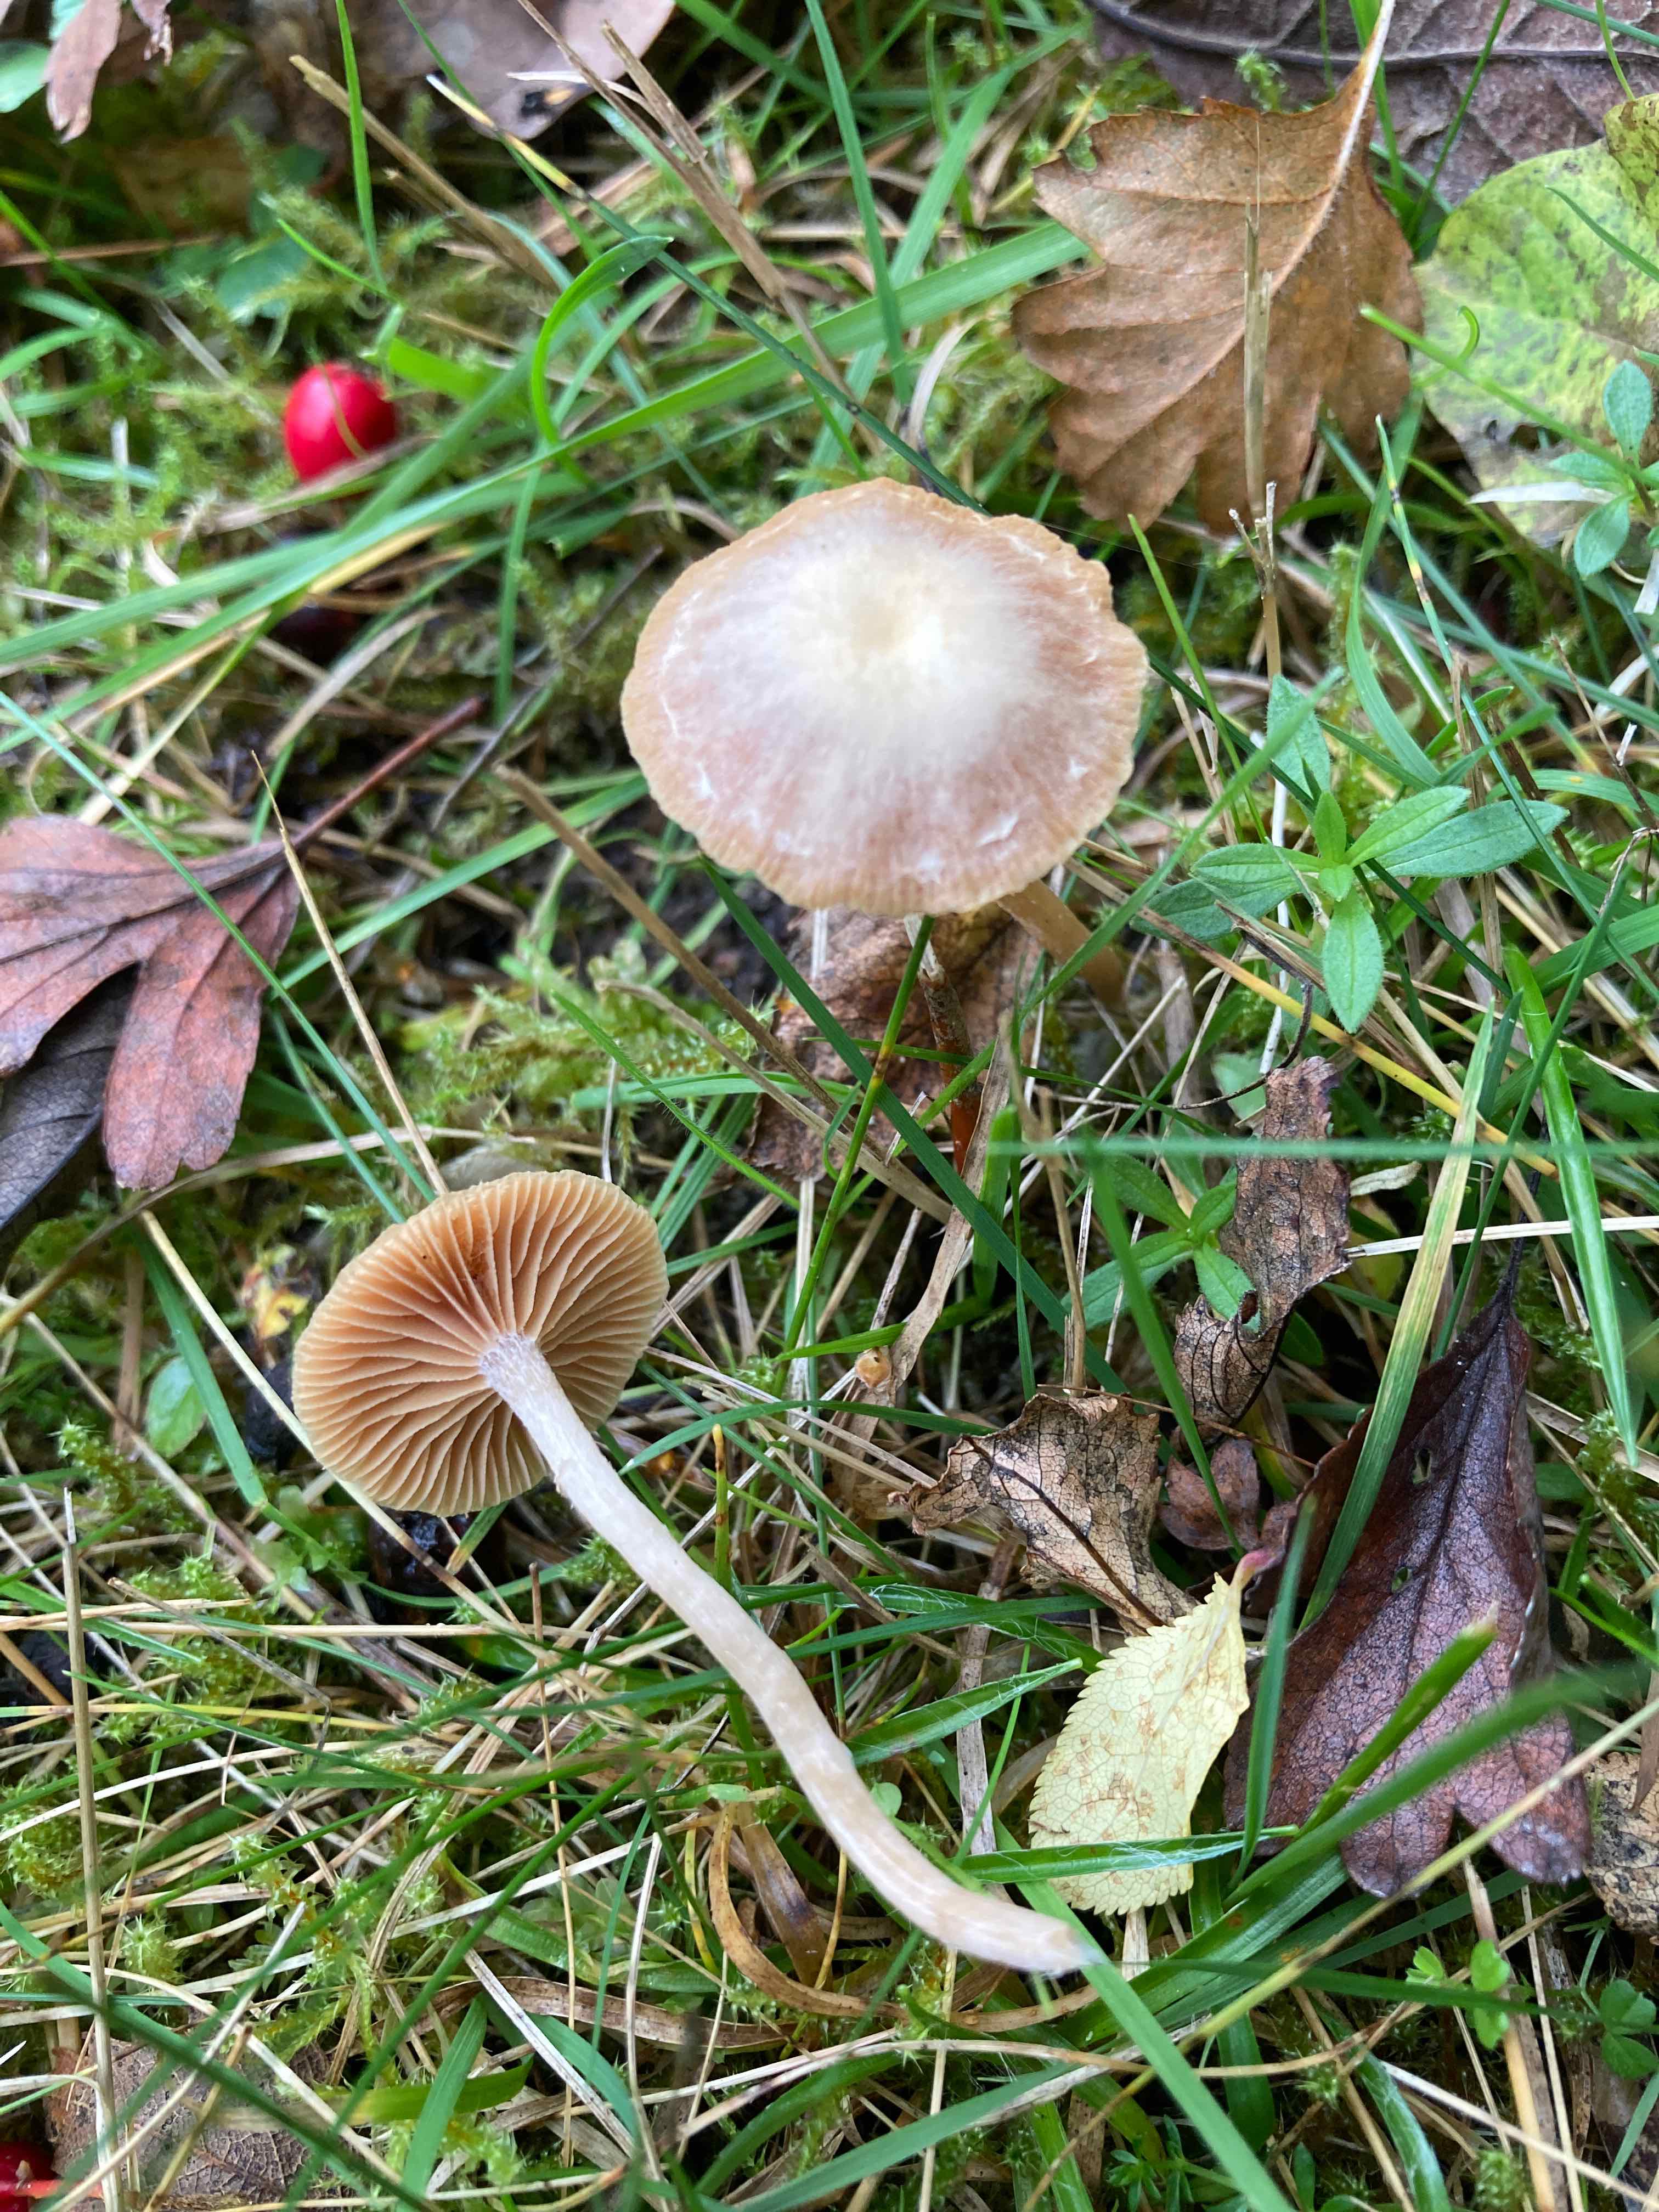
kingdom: Fungi
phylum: Basidiomycota
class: Agaricomycetes
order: Agaricales
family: Tubariaceae
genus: Tubaria
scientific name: Tubaria furfuracea
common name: kliddet fnughat
